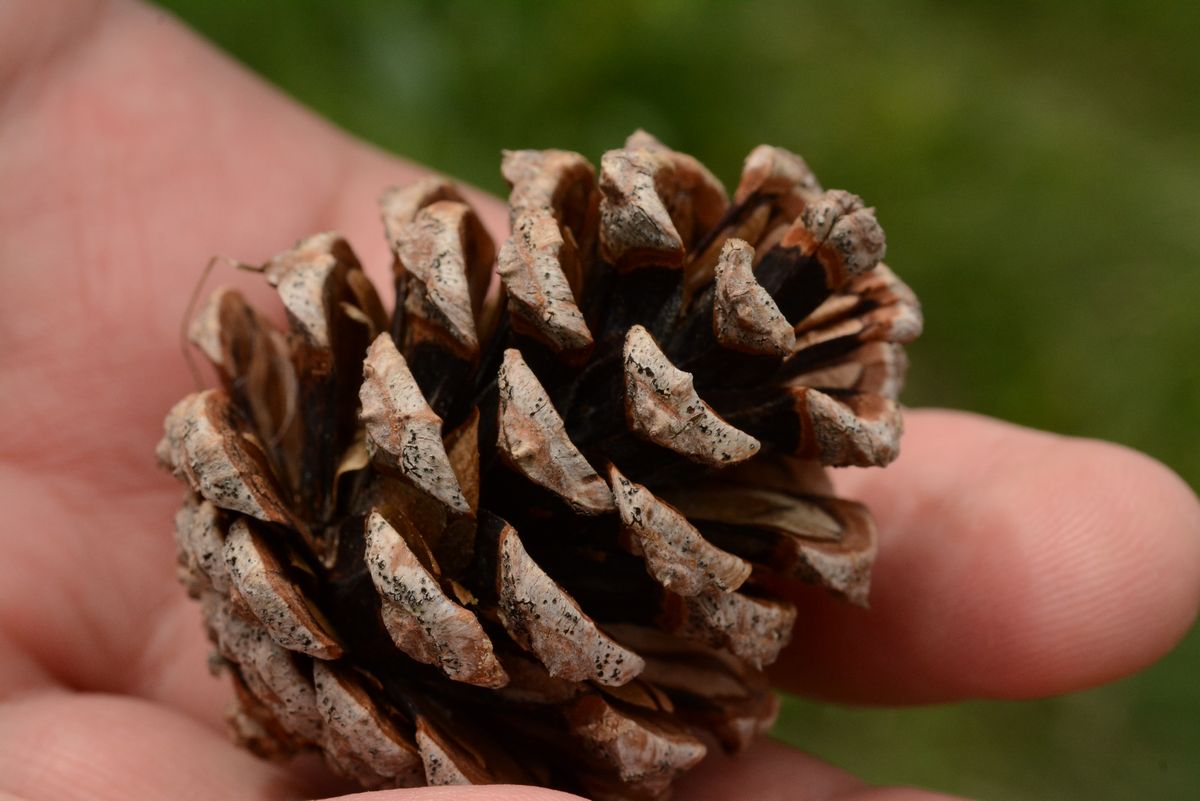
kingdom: Plantae
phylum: Tracheophyta
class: Pinopsida
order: Pinales
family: Pinaceae
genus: Pinus
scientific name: Pinus nigra
